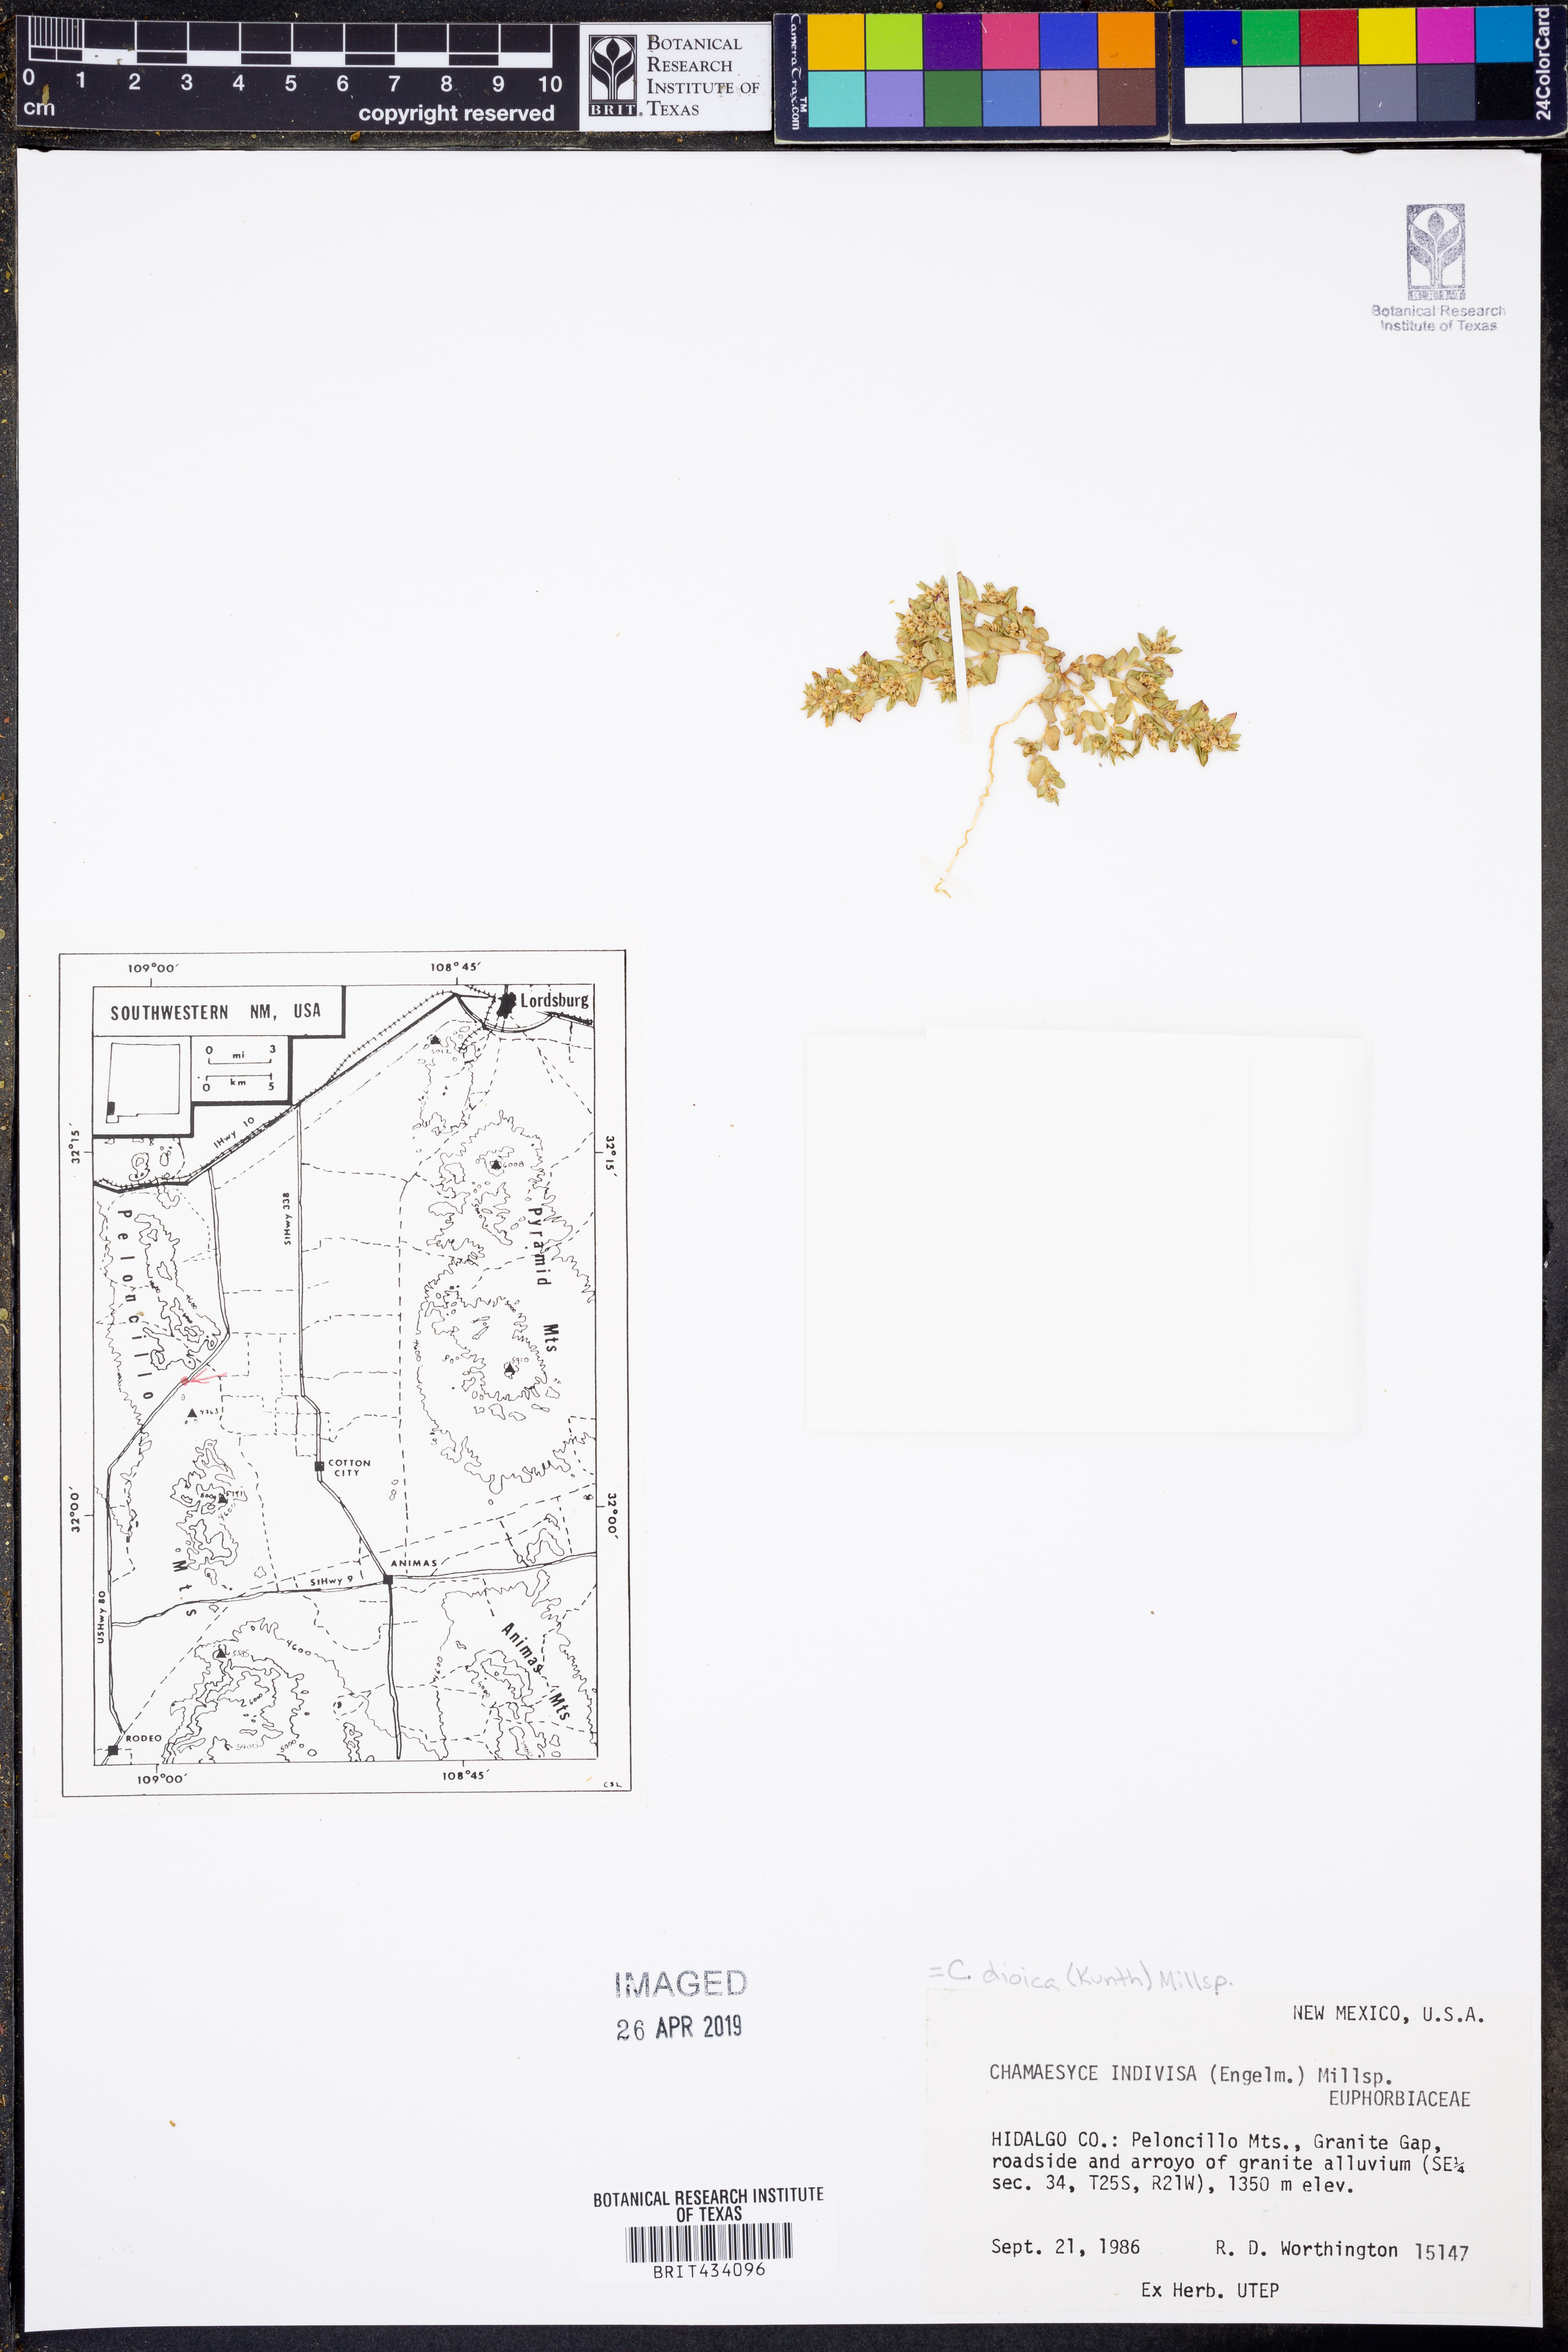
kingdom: Plantae
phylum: Tracheophyta
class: Magnoliopsida
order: Malpighiales
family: Euphorbiaceae
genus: Euphorbia
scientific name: Euphorbia indivisa
